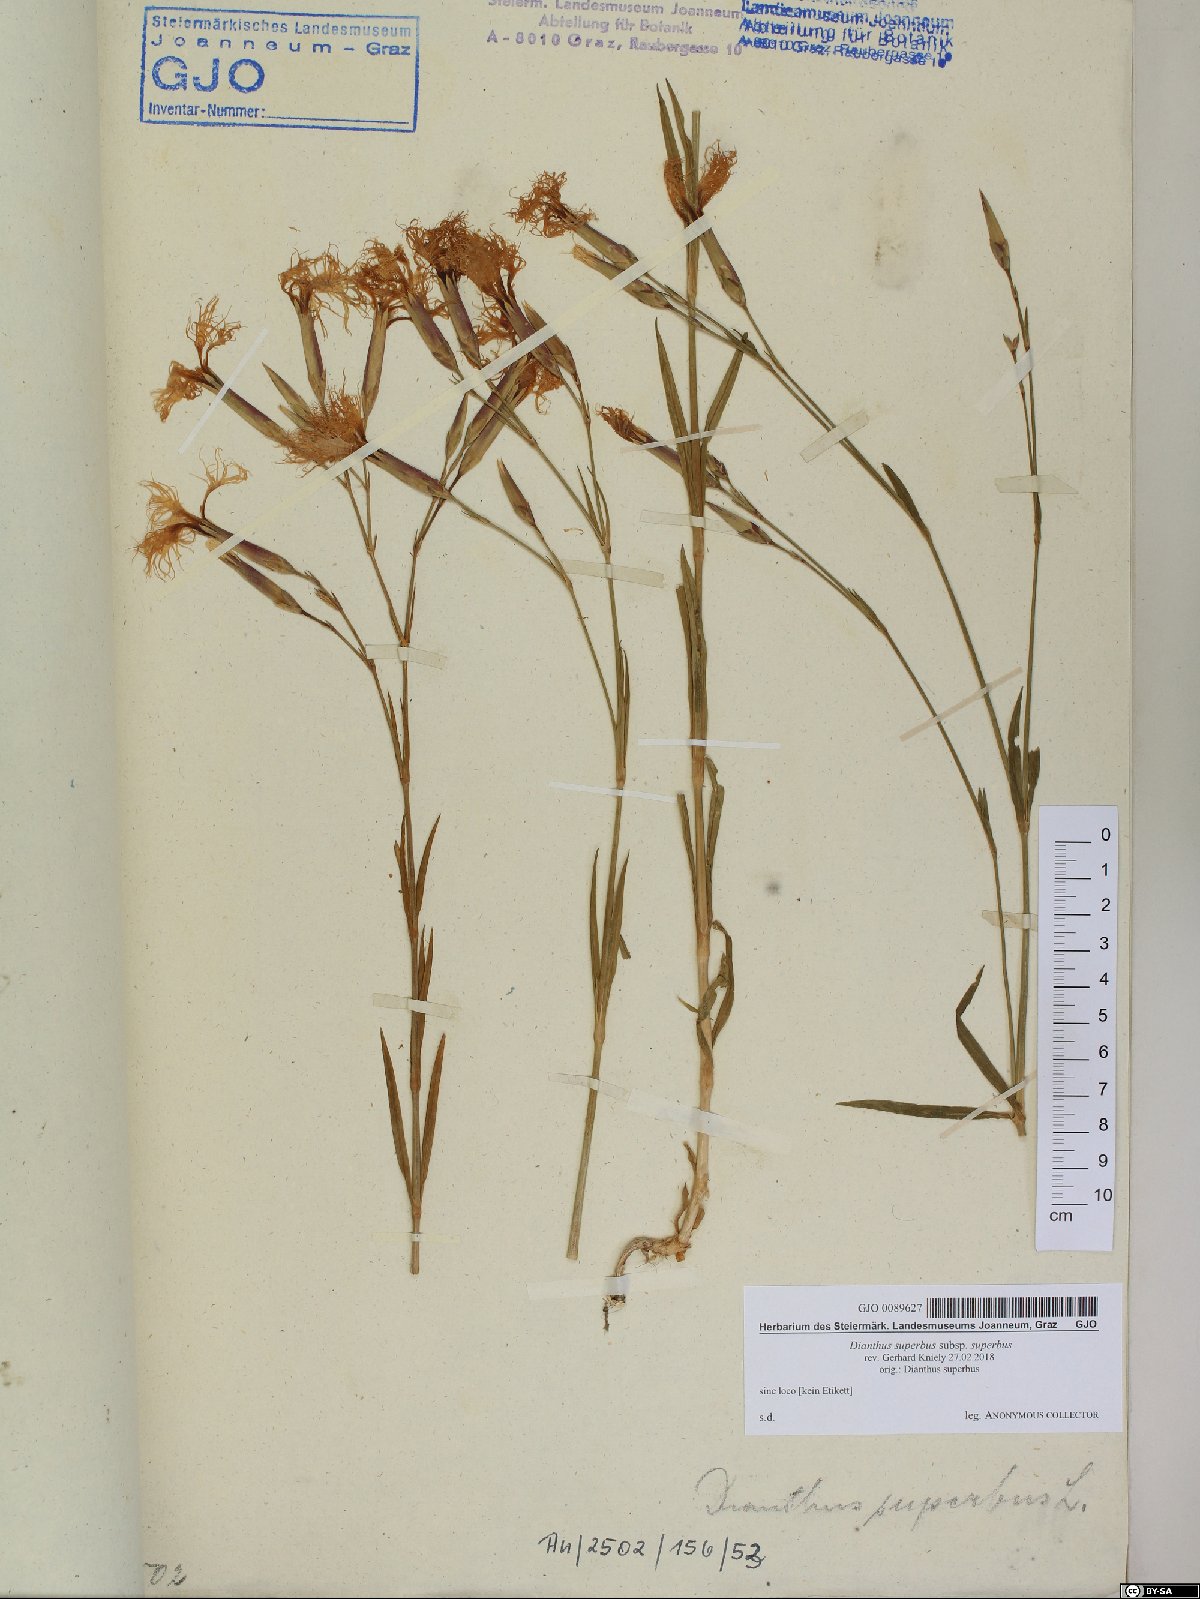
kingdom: Plantae
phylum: Tracheophyta
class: Magnoliopsida
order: Caryophyllales
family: Caryophyllaceae
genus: Dianthus
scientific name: Dianthus superbus
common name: Fringed pink
